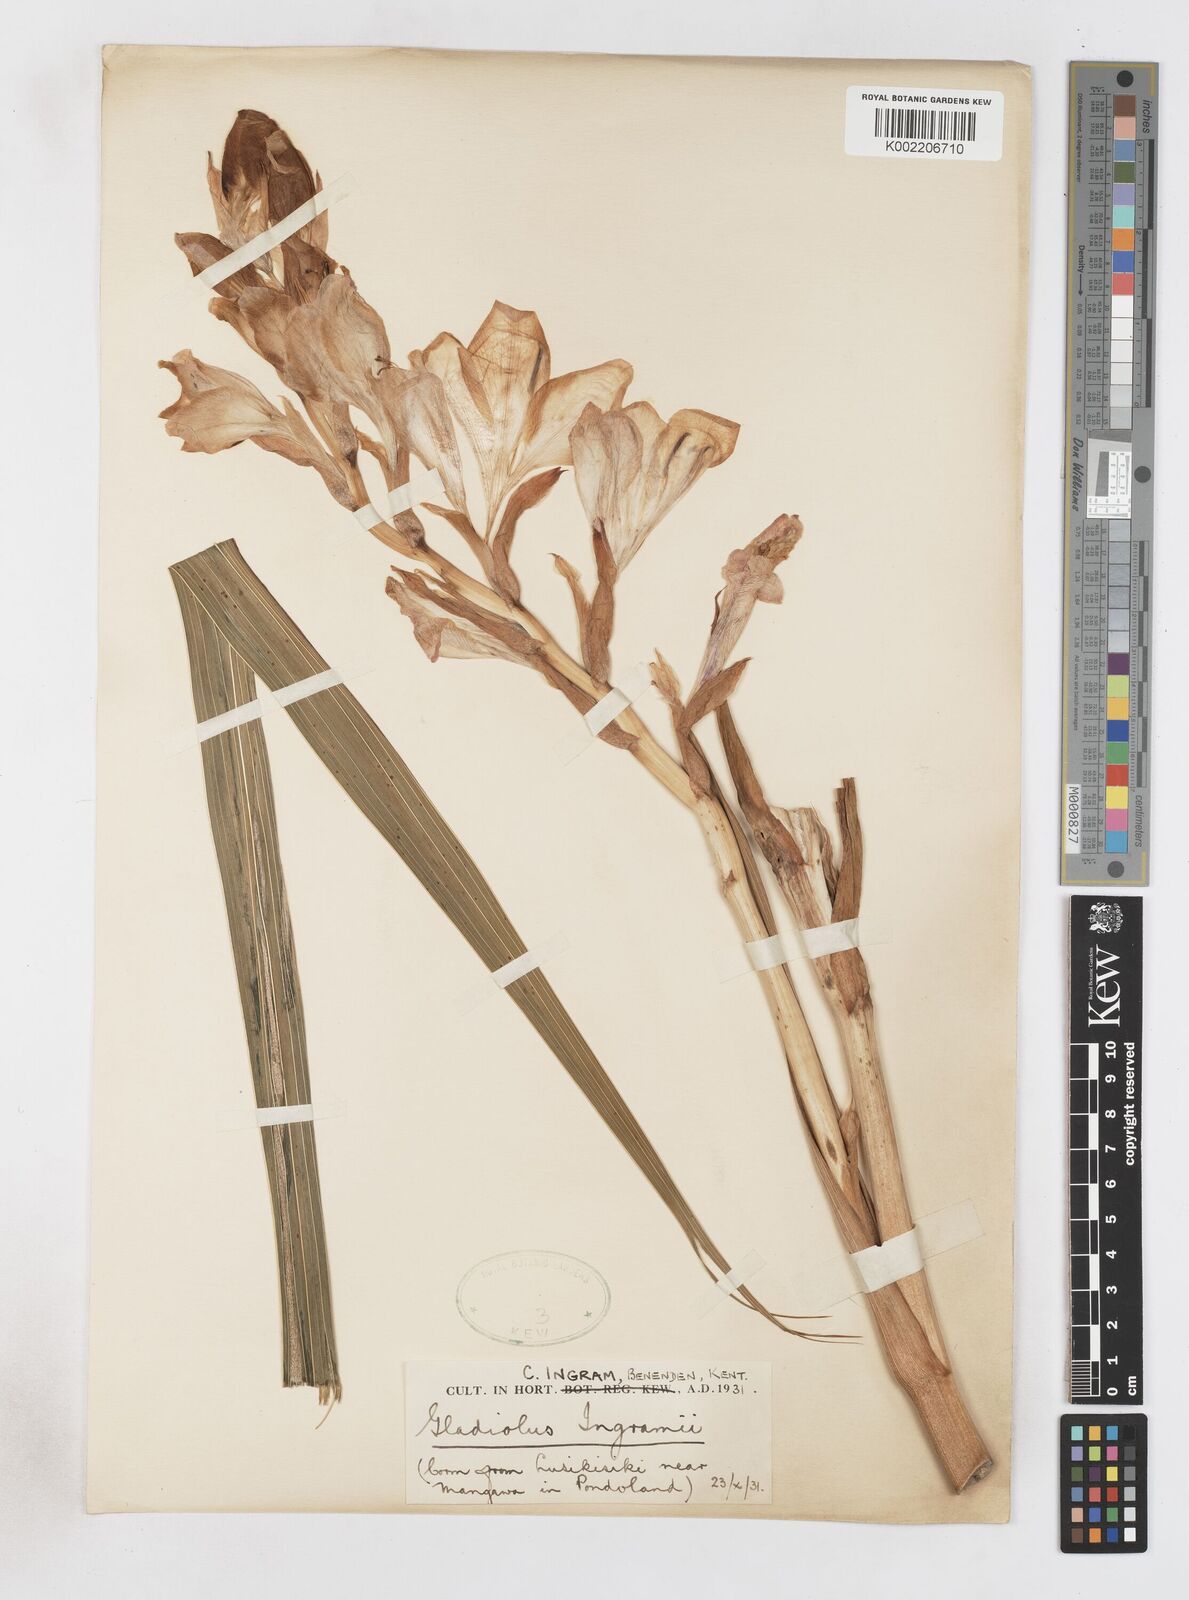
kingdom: Plantae
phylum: Tracheophyta
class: Liliopsida
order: Asparagales
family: Iridaceae
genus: Gladiolus
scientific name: Gladiolus
